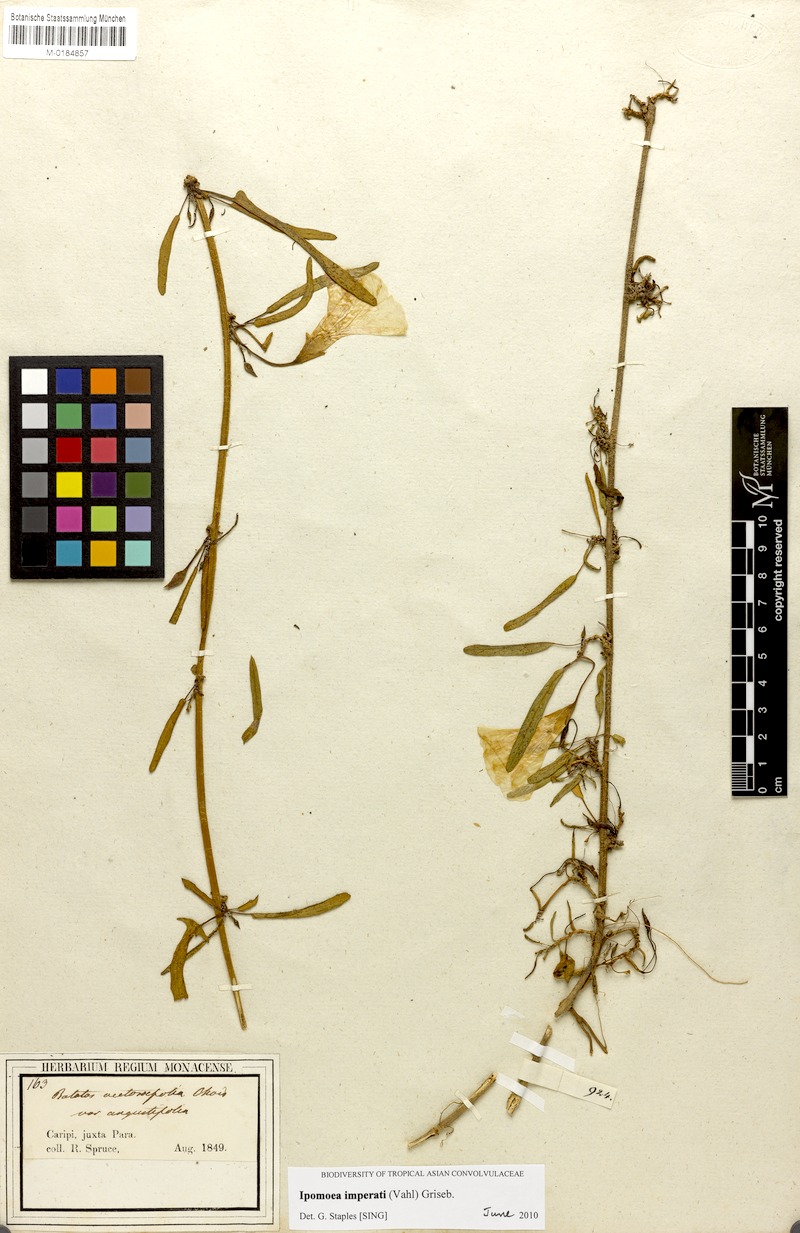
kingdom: Plantae
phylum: Tracheophyta
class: Magnoliopsida
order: Solanales
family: Convolvulaceae
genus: Ipomoea
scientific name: Ipomoea imperati
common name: Fiddle-leaf morning-glory
